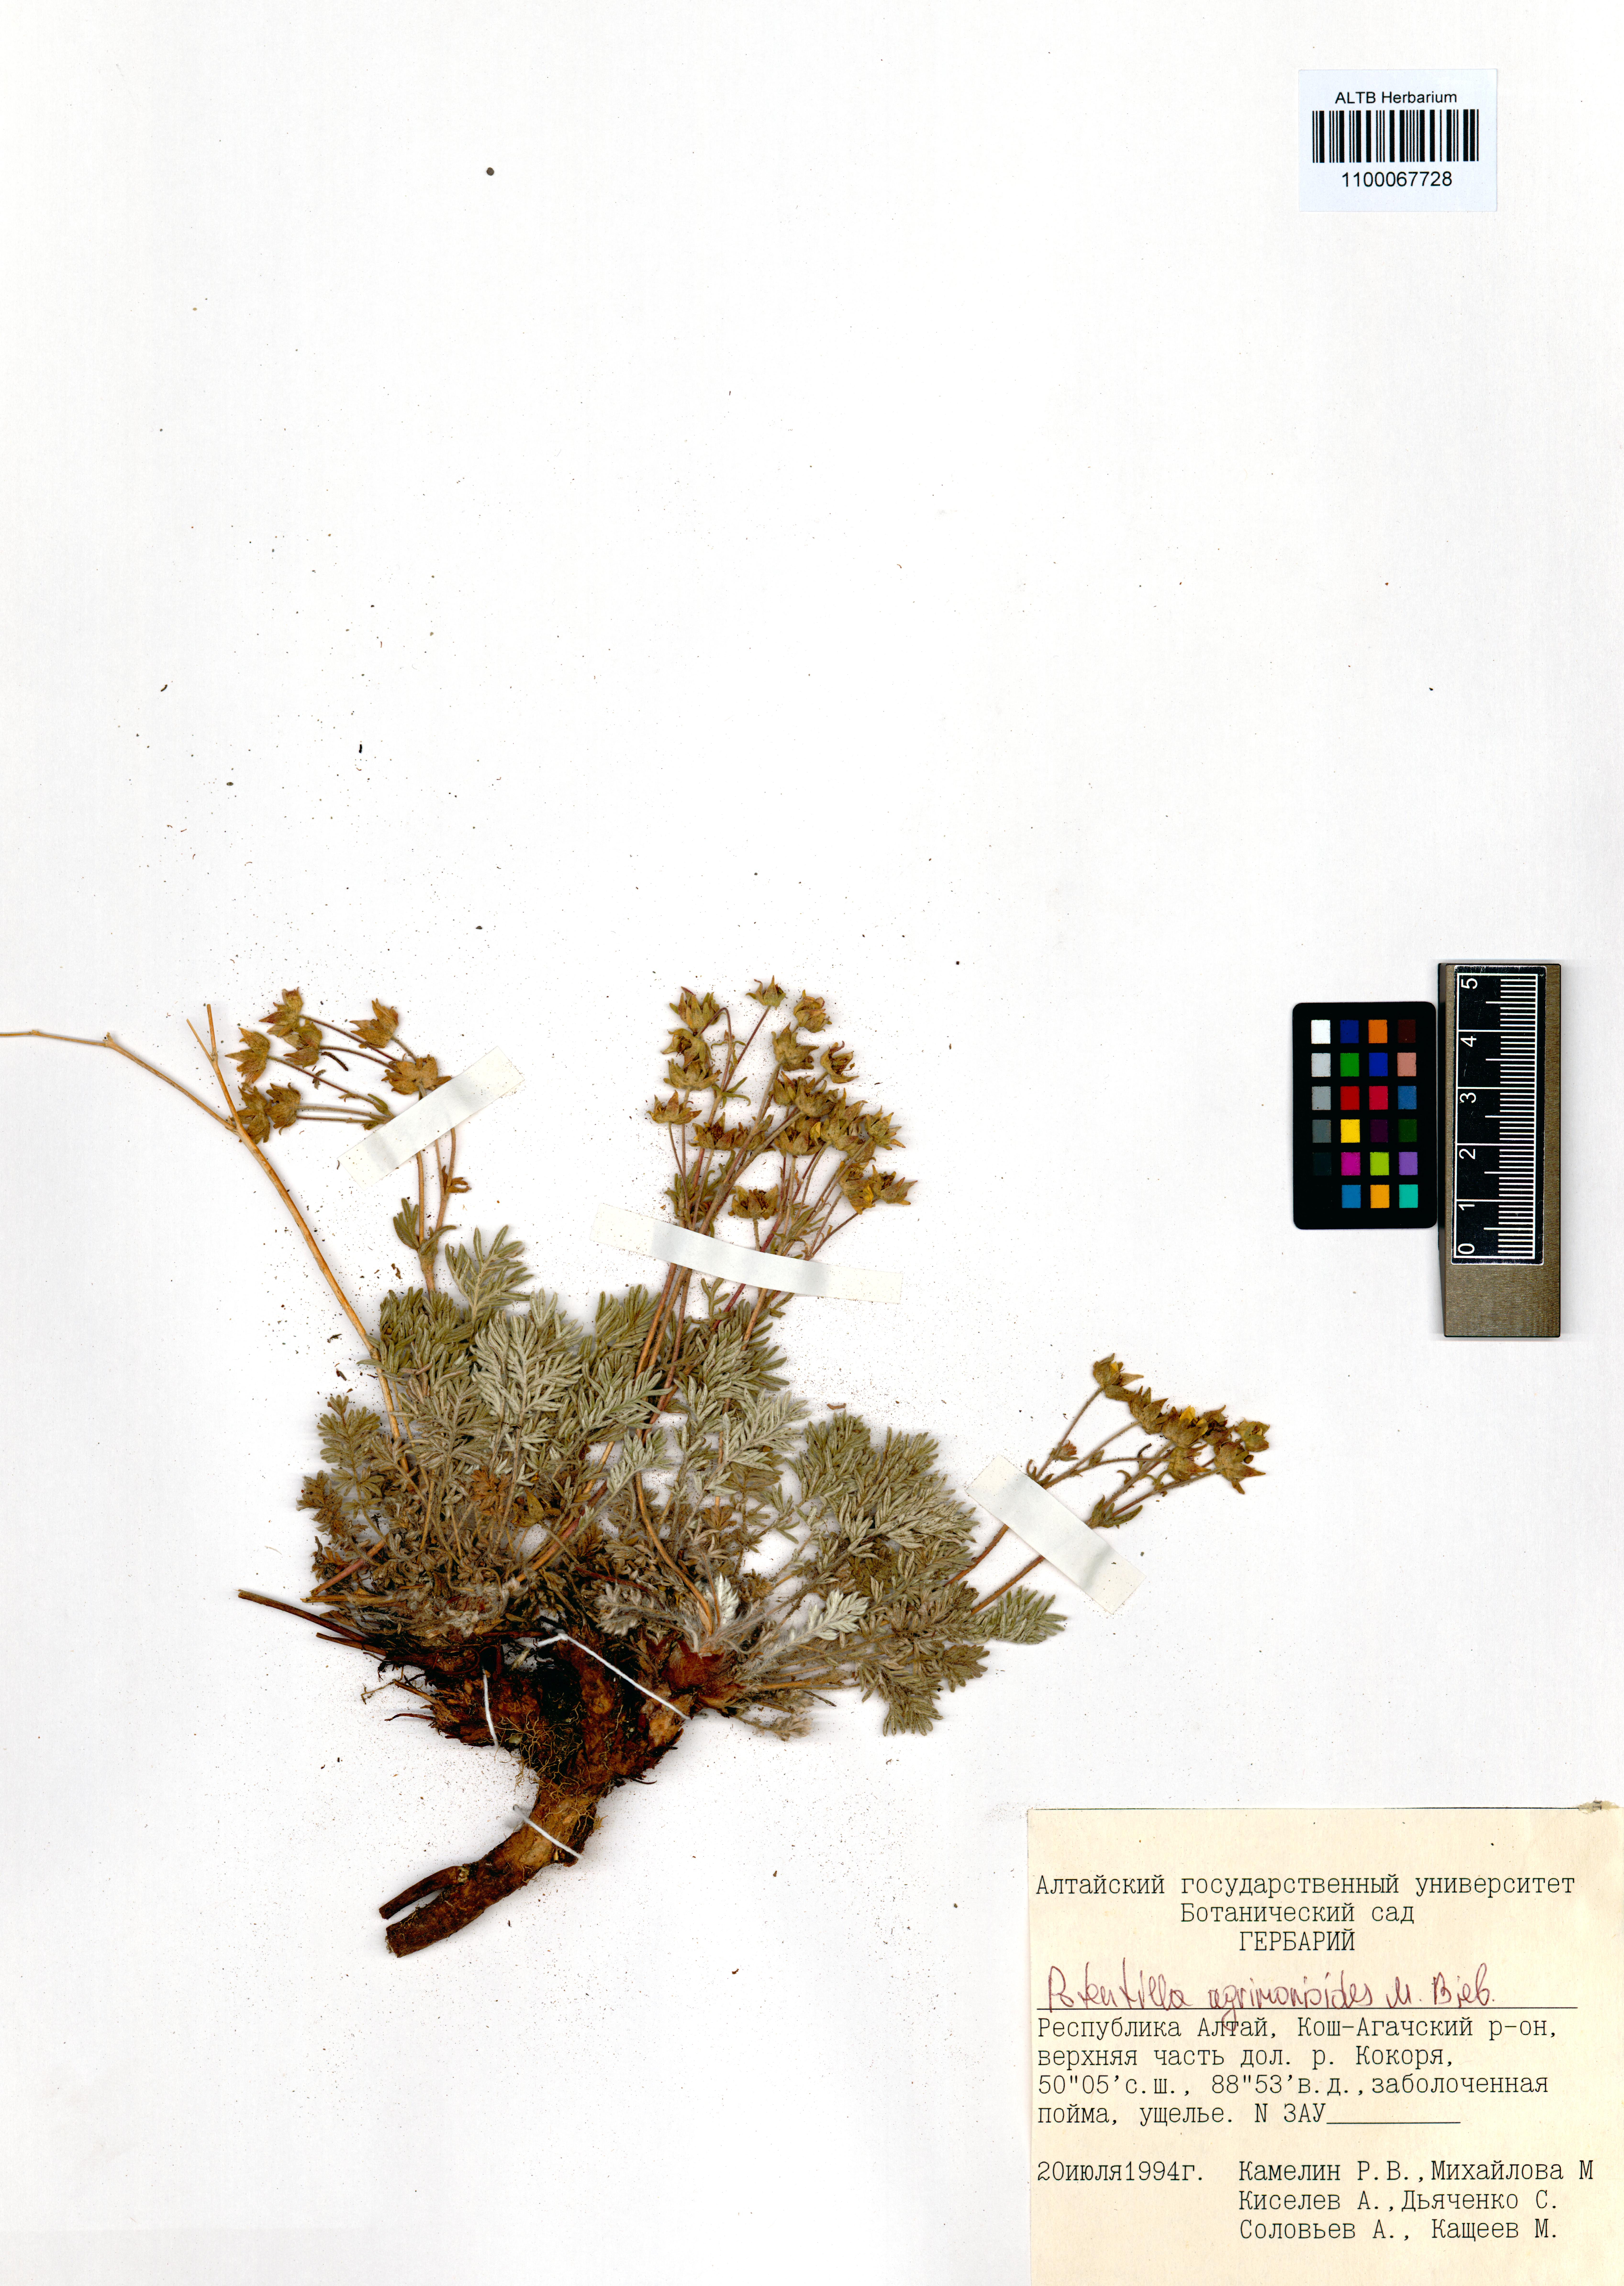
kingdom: Plantae
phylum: Tracheophyta
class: Magnoliopsida
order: Rosales
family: Rosaceae
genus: Potentilla
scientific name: Potentilla agrimonioides
